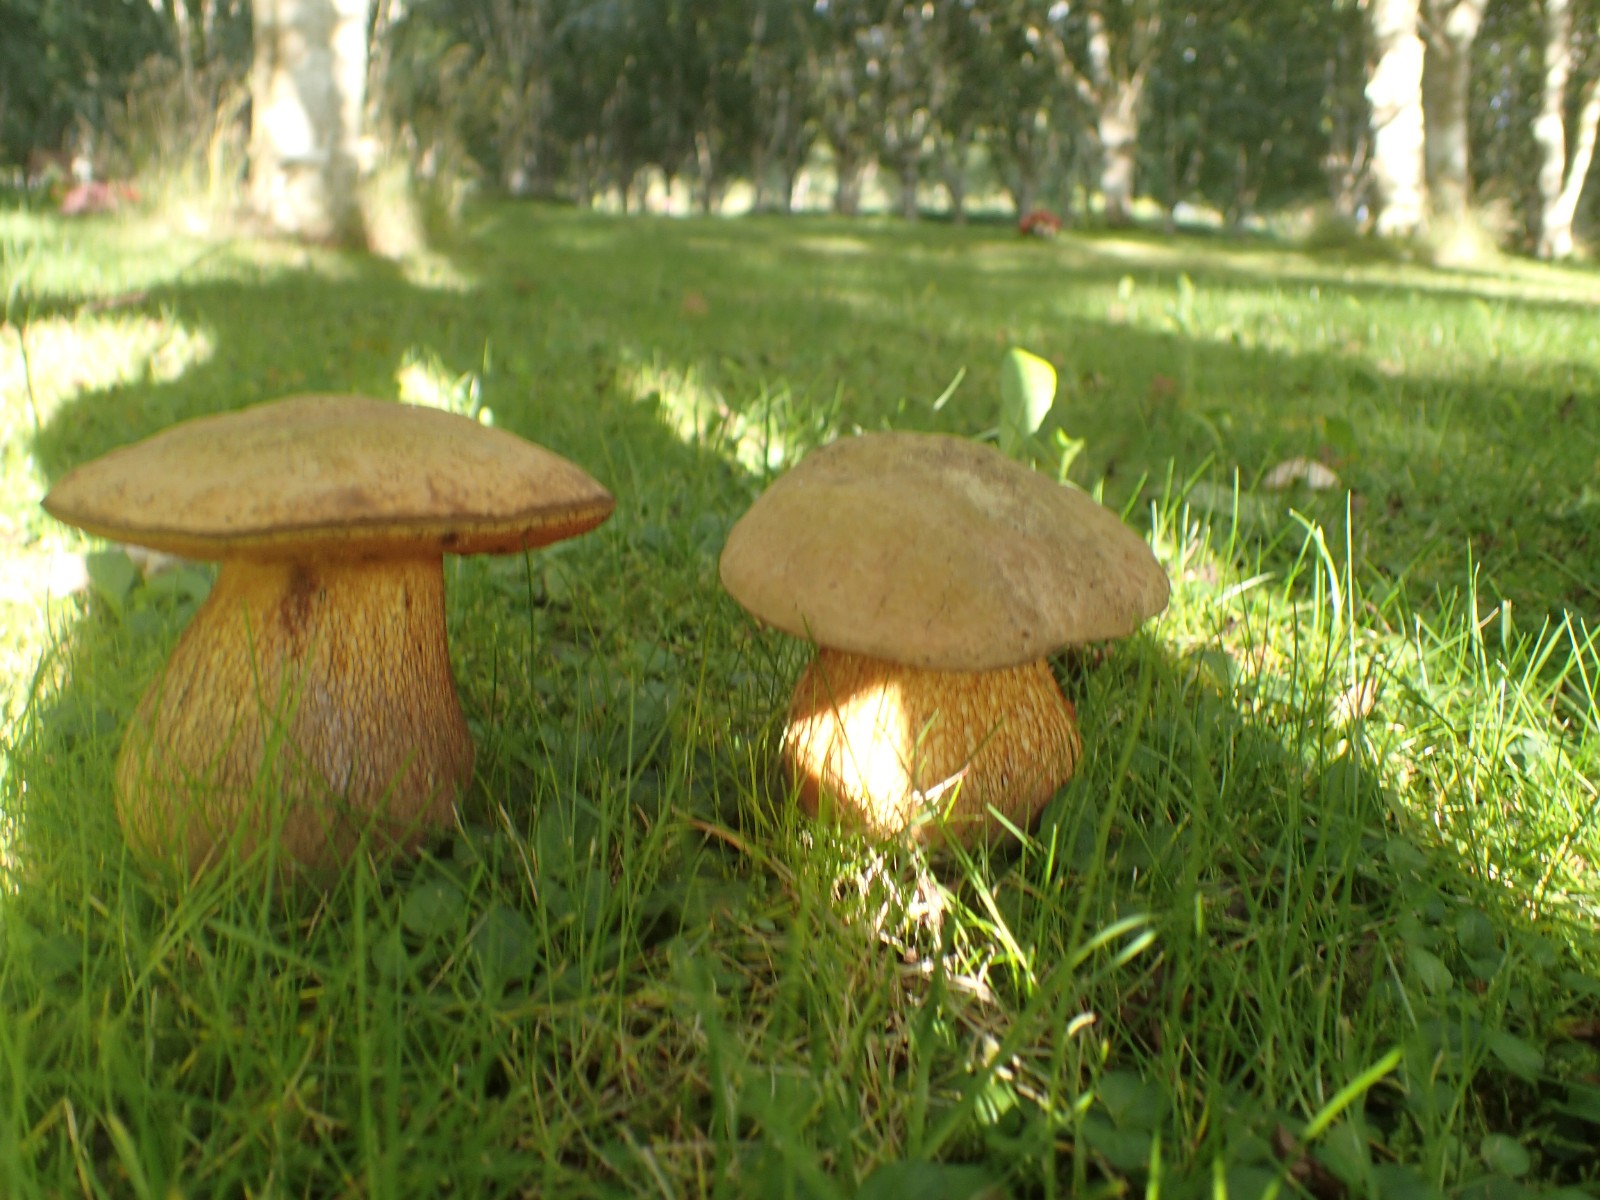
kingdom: Fungi
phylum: Basidiomycota
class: Agaricomycetes
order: Boletales
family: Boletaceae
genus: Suillellus
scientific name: Suillellus luridus
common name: netstokket indigorørhat
